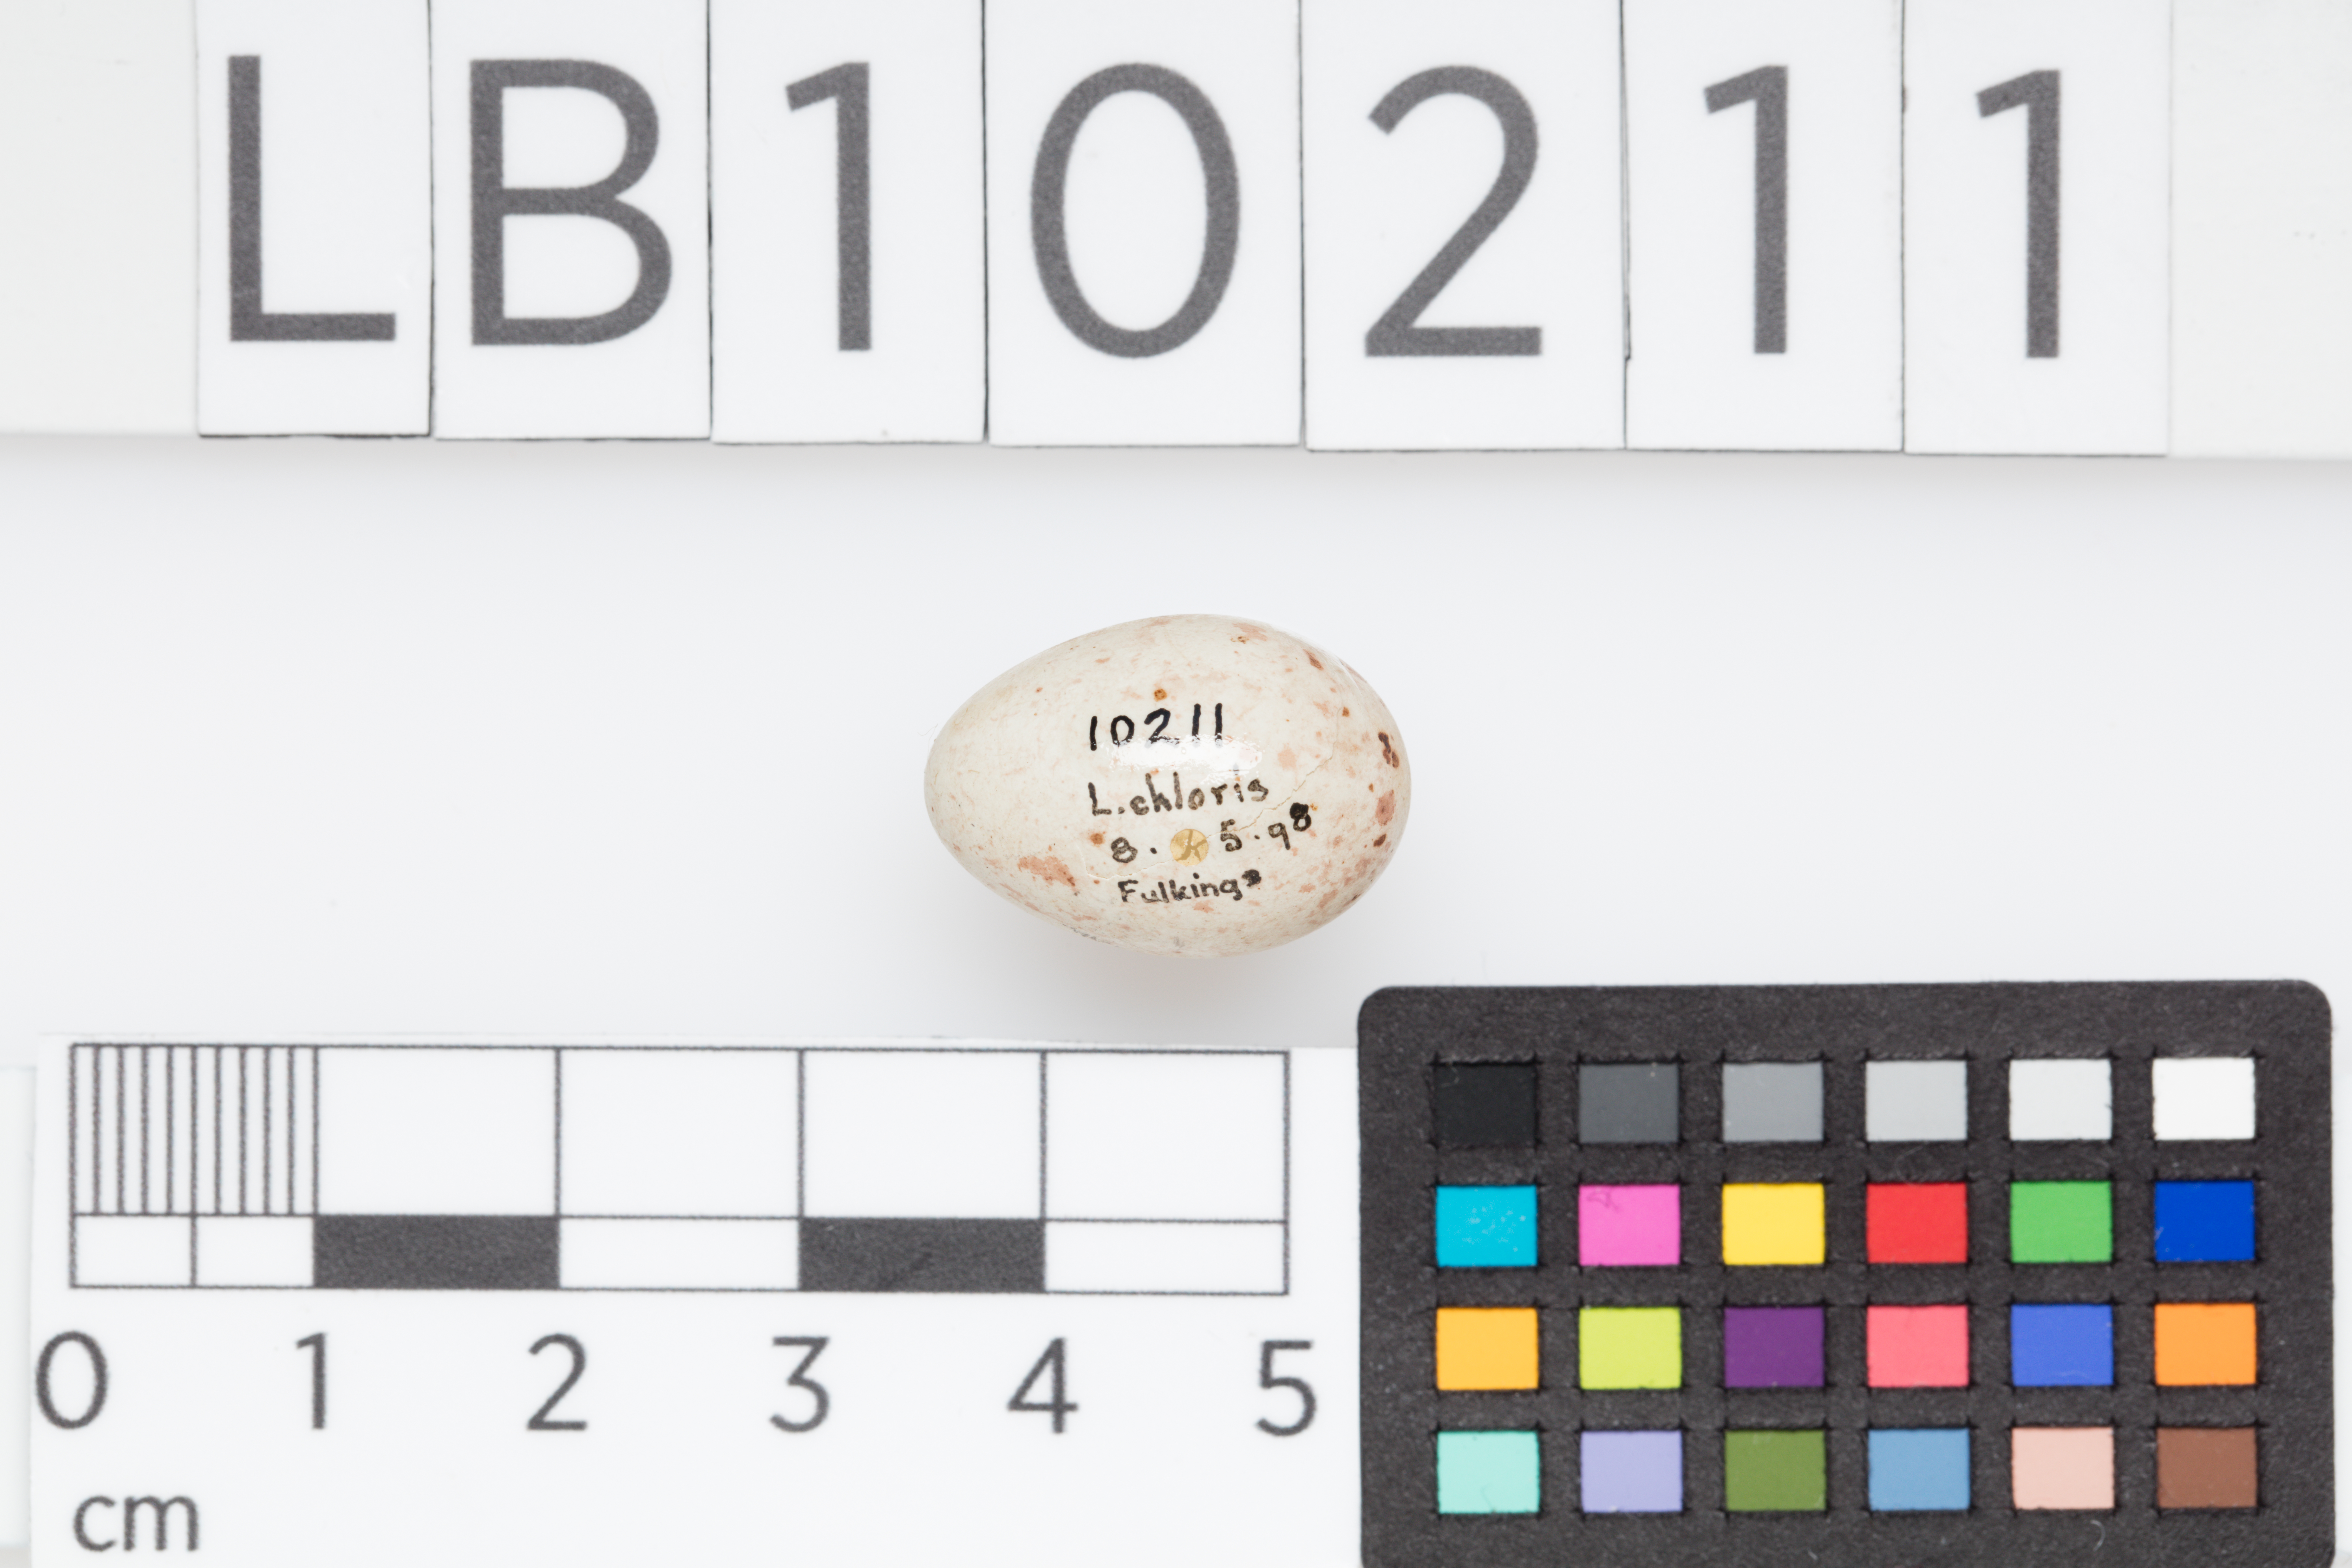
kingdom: Plantae
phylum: Tracheophyta
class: Liliopsida
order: Poales
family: Poaceae
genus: Chloris
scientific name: Chloris chloris
